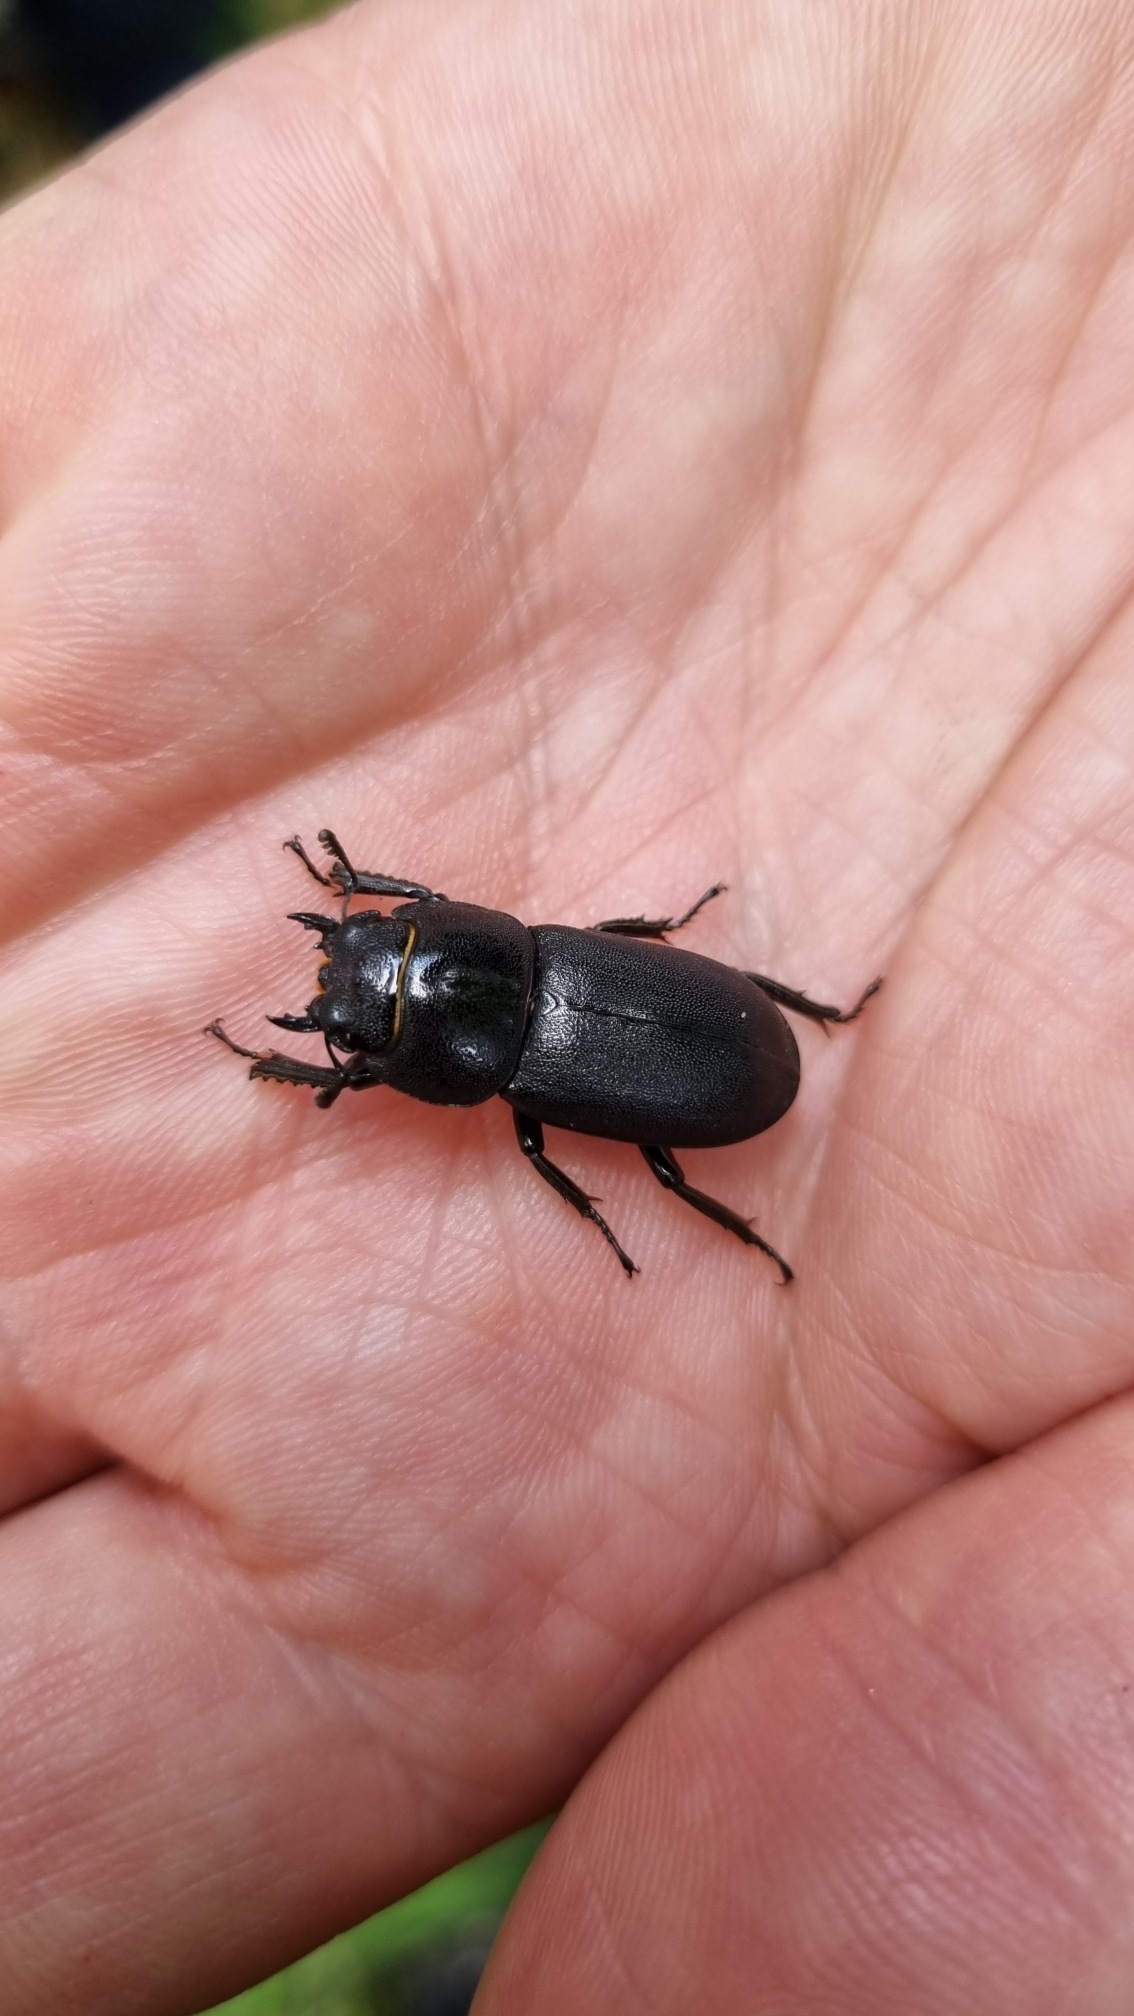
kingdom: Animalia
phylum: Arthropoda
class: Insecta
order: Coleoptera
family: Lucanidae
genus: Dorcus
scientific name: Dorcus parallelipipedus
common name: Bøghjort
